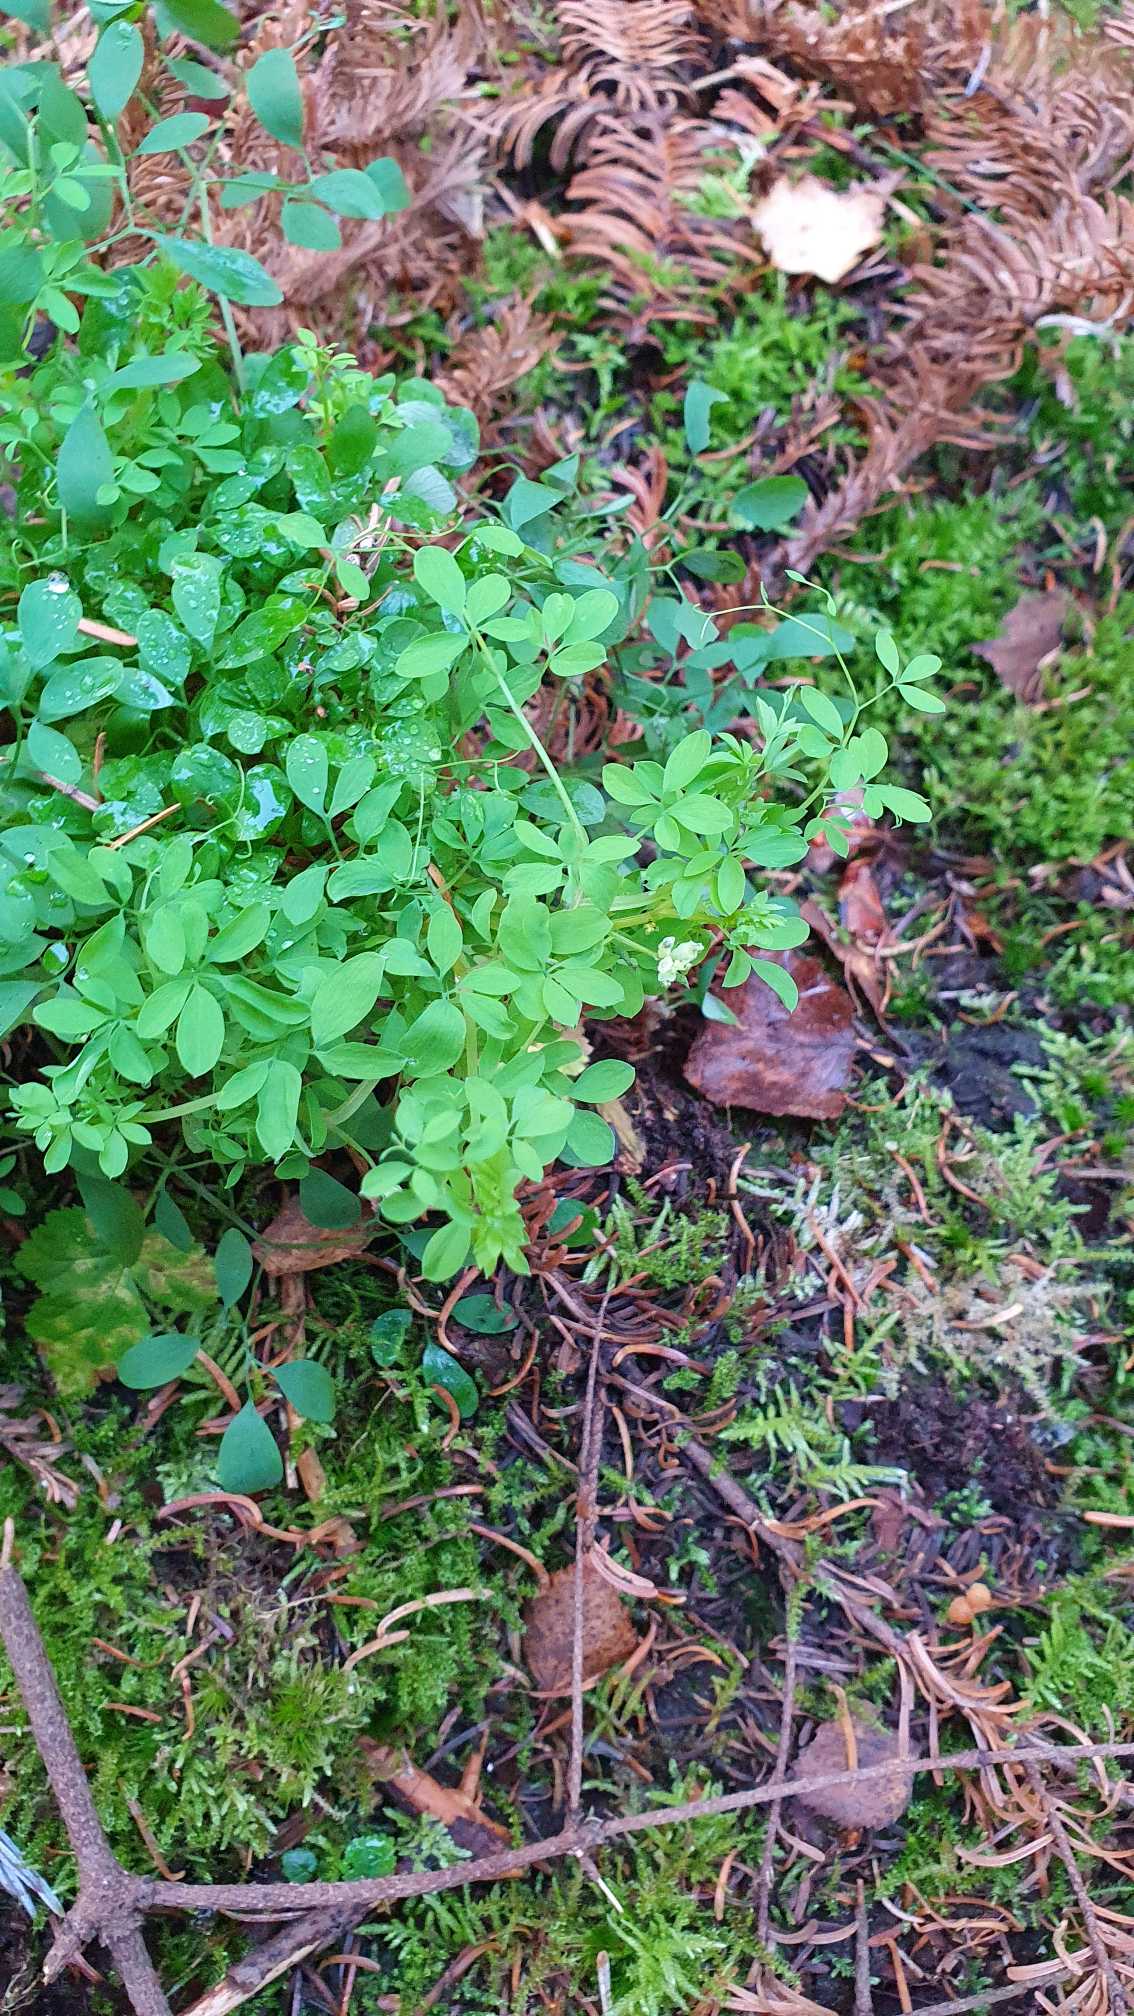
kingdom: Plantae
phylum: Tracheophyta
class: Magnoliopsida
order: Ranunculales
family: Papaveraceae
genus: Ceratocapnos
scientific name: Ceratocapnos claviculata
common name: Klatrende lærkespore
